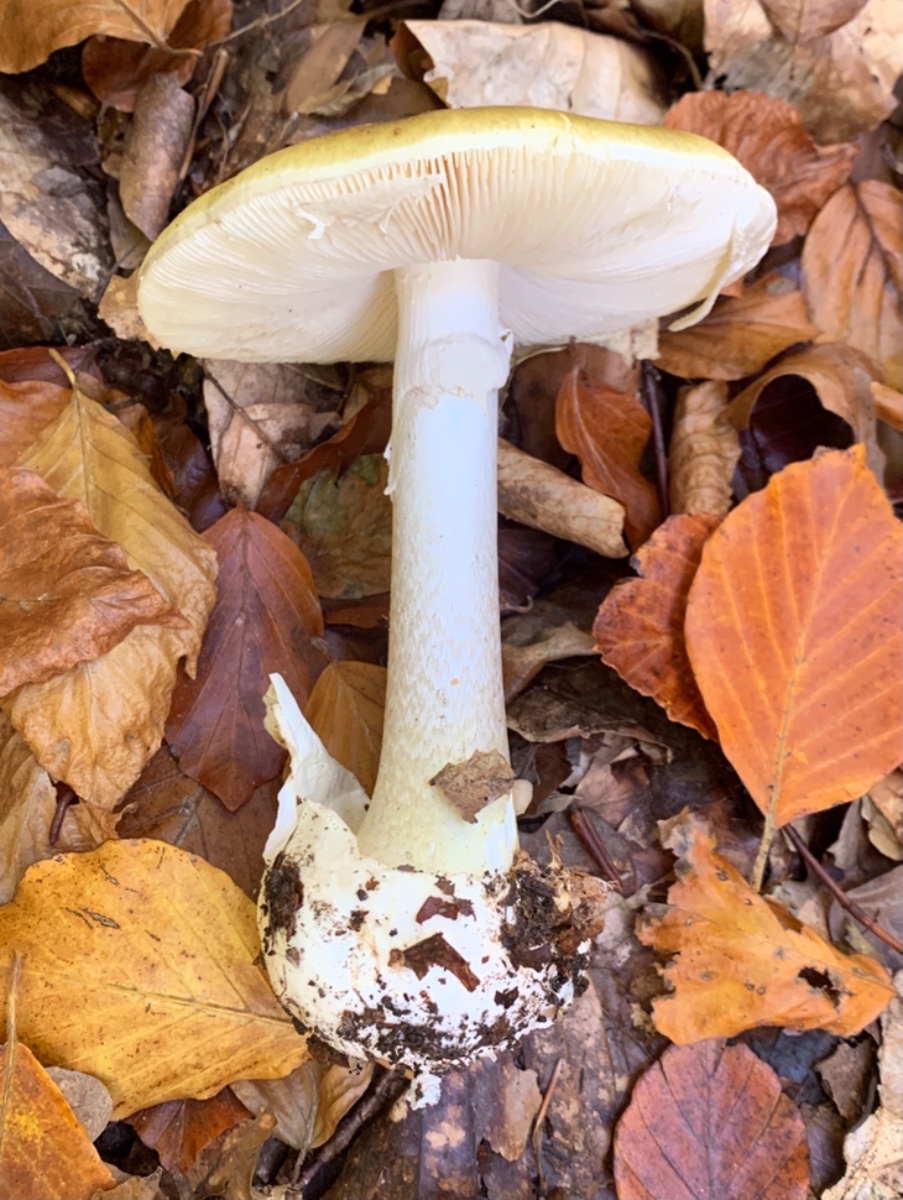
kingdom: Fungi
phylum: Basidiomycota
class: Agaricomycetes
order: Agaricales
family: Amanitaceae
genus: Amanita
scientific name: Amanita phalloides
